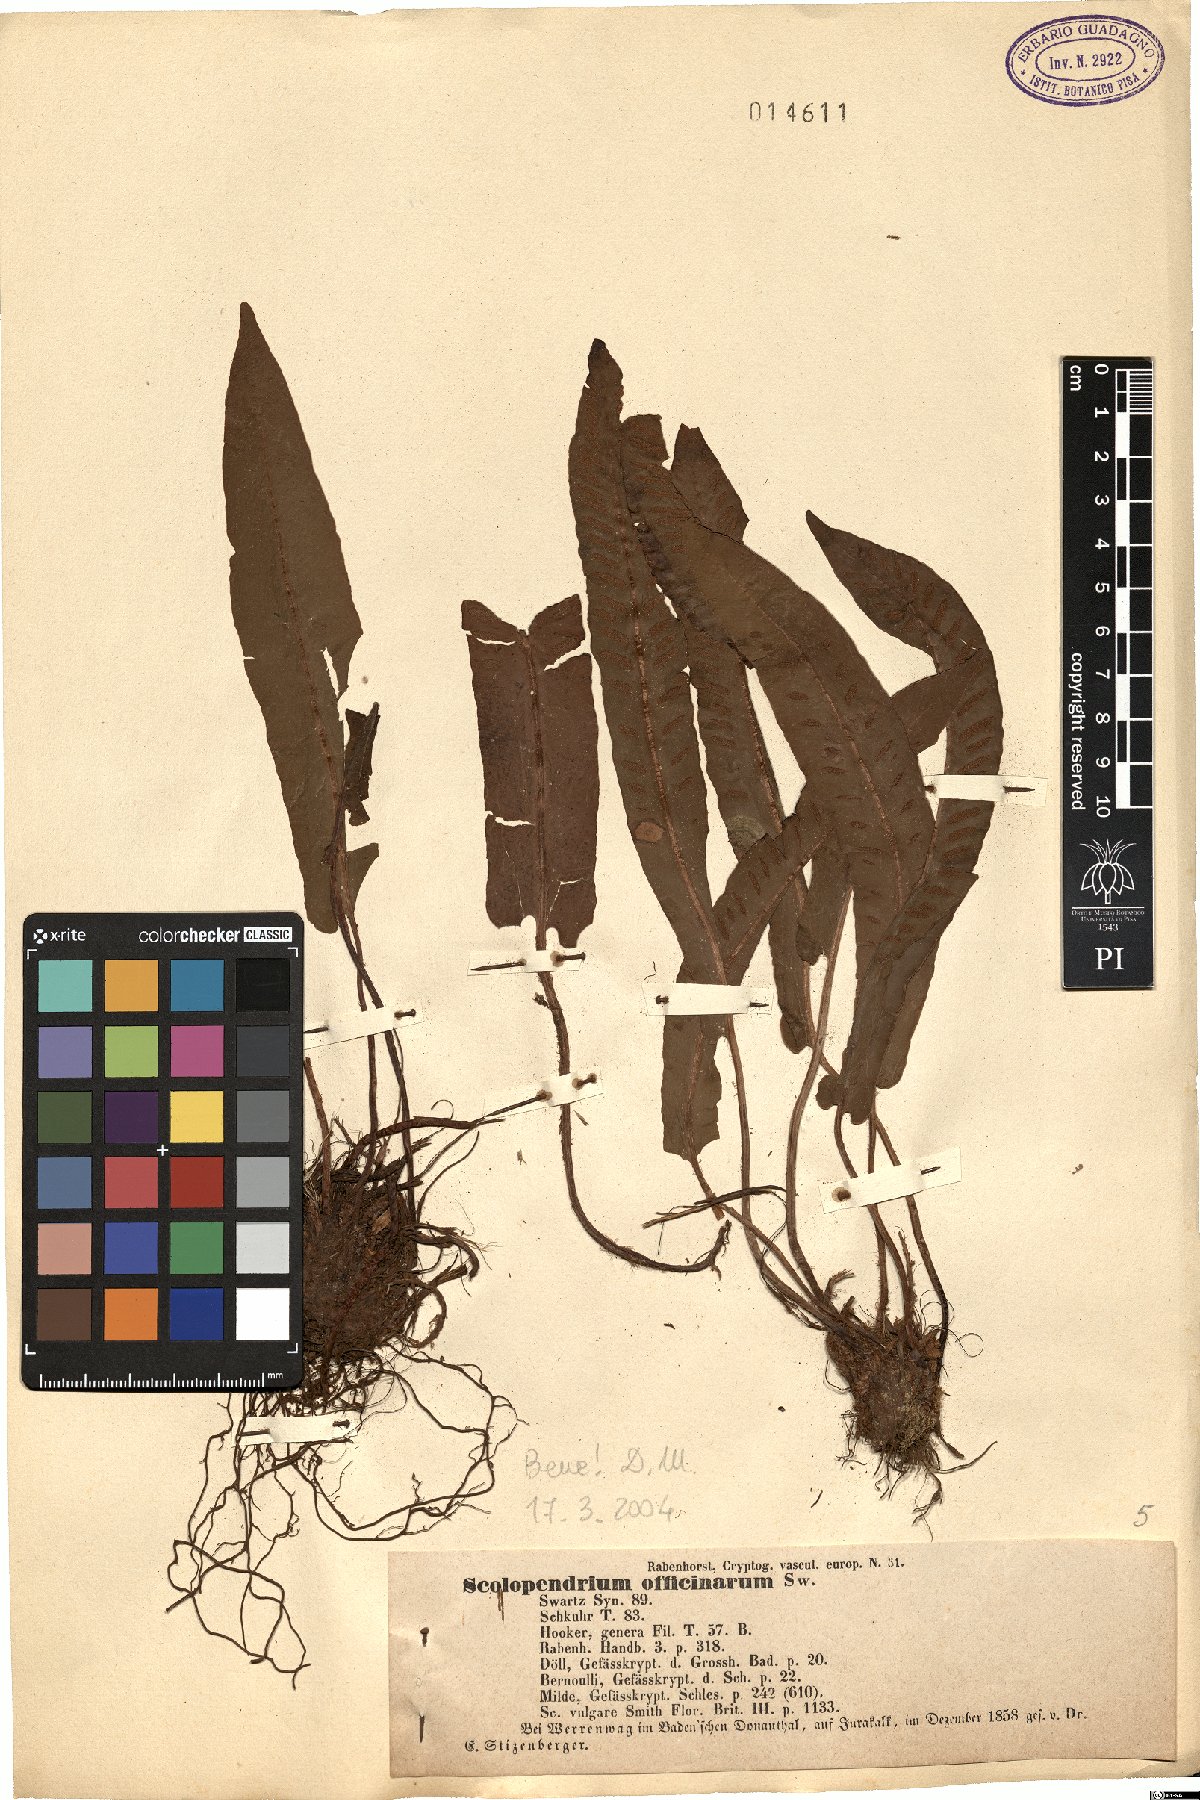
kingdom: Plantae
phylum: Tracheophyta
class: Polypodiopsida
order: Polypodiales
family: Aspleniaceae
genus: Asplenium
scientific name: Asplenium scolopendrium
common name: Hart's-tongue fern
